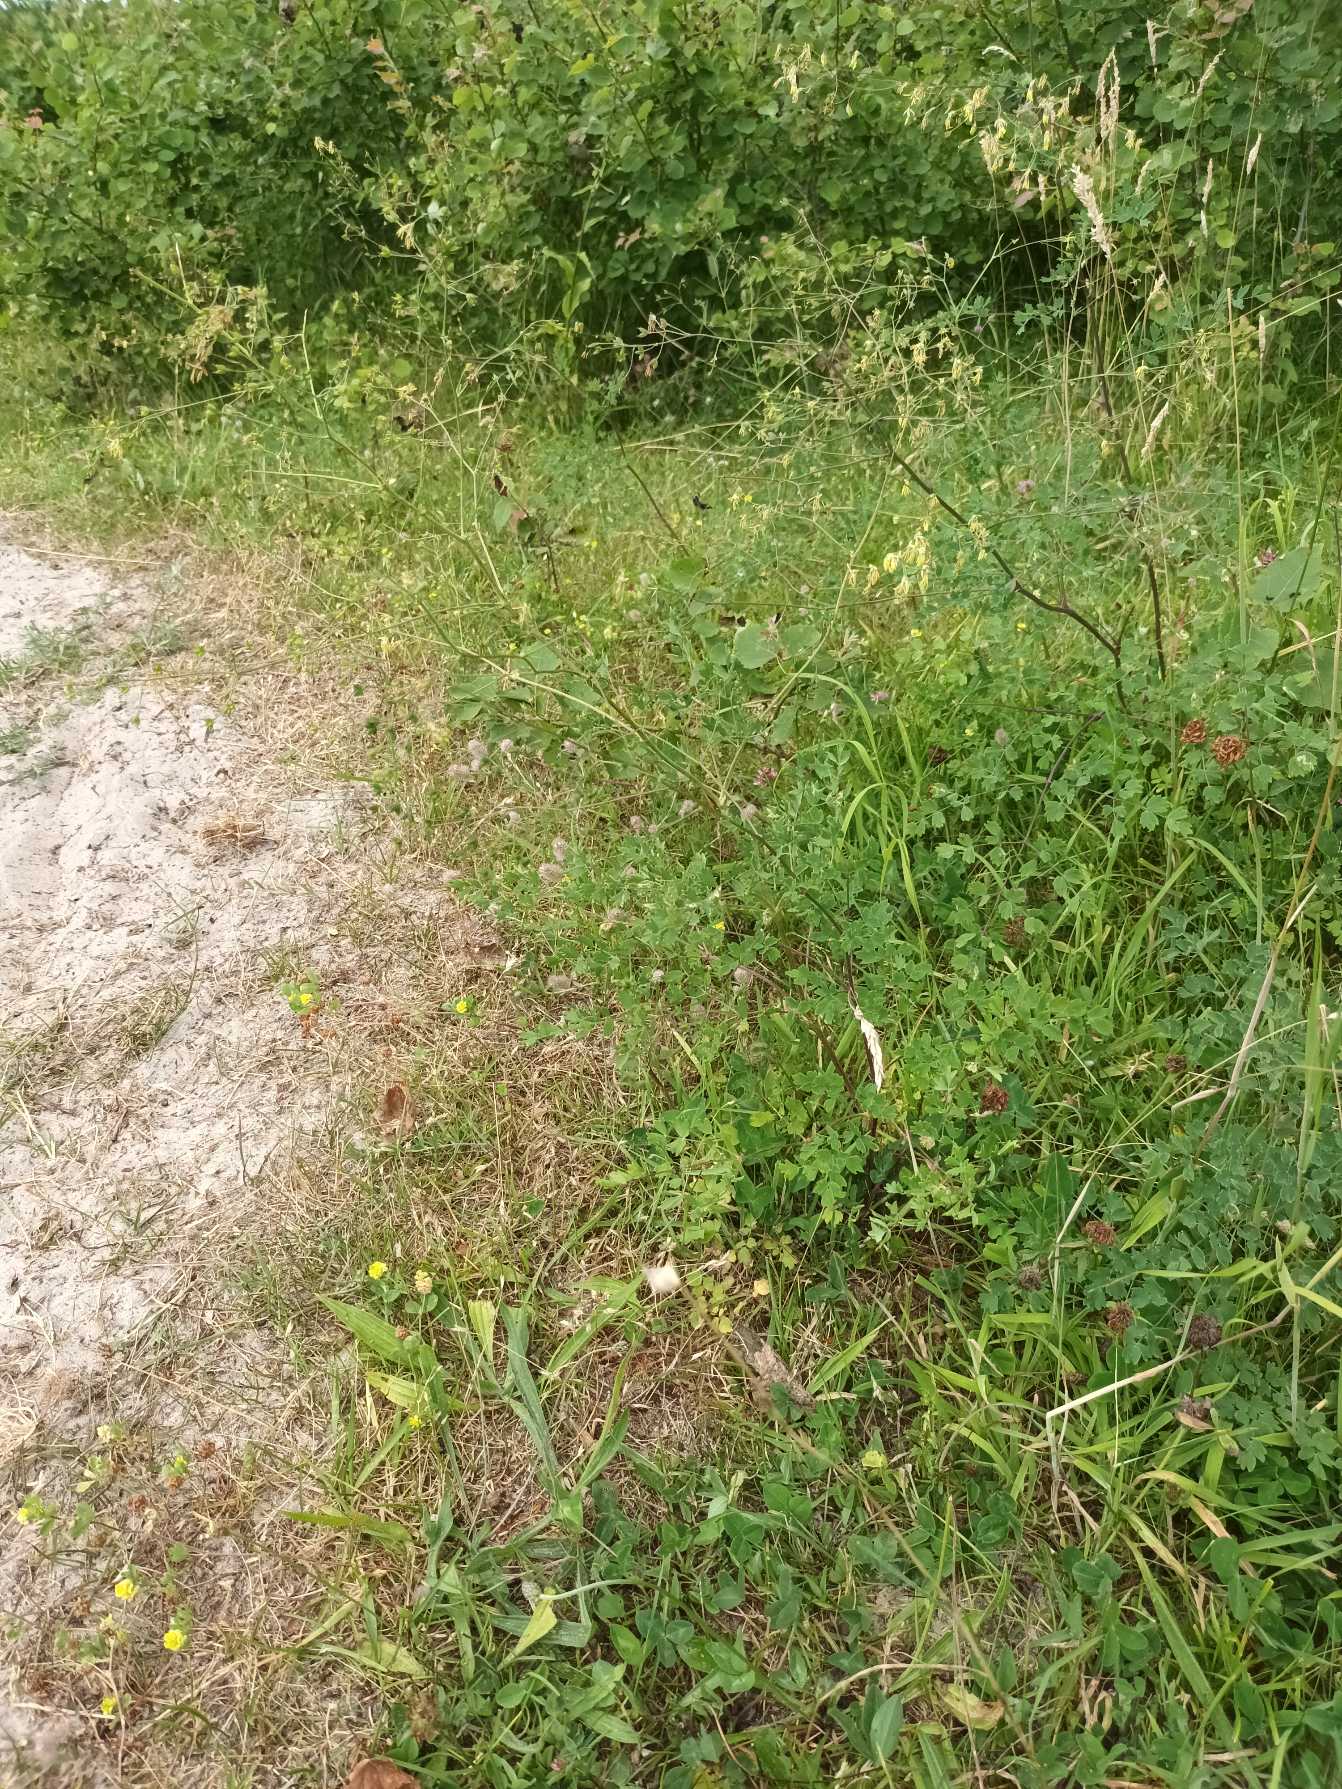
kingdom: Plantae
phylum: Tracheophyta
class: Magnoliopsida
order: Ranunculales
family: Ranunculaceae
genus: Thalictrum
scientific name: Thalictrum minus
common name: Sand-frøstjerne
